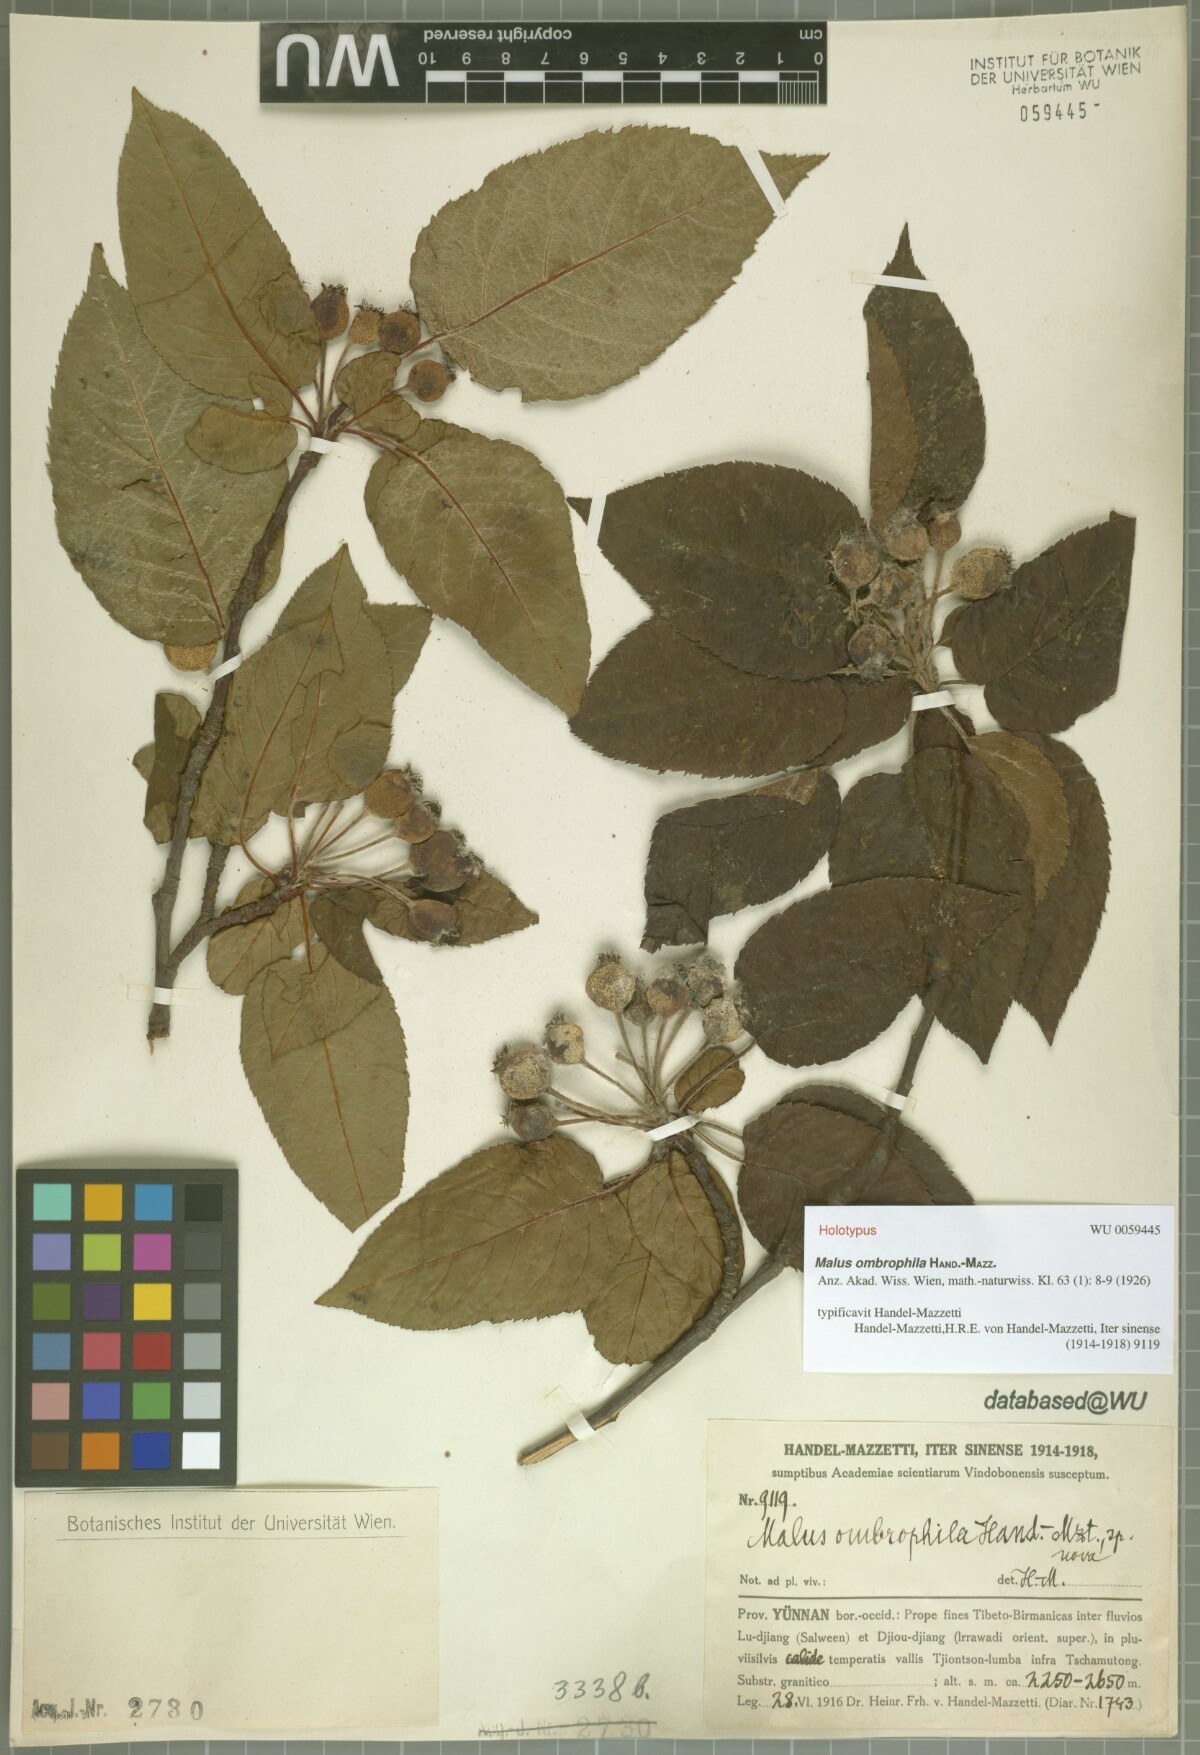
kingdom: Plantae
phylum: Tracheophyta
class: Magnoliopsida
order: Rosales
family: Rosaceae
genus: Malus
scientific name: Malus ombrophila
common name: Changchiang river apple
